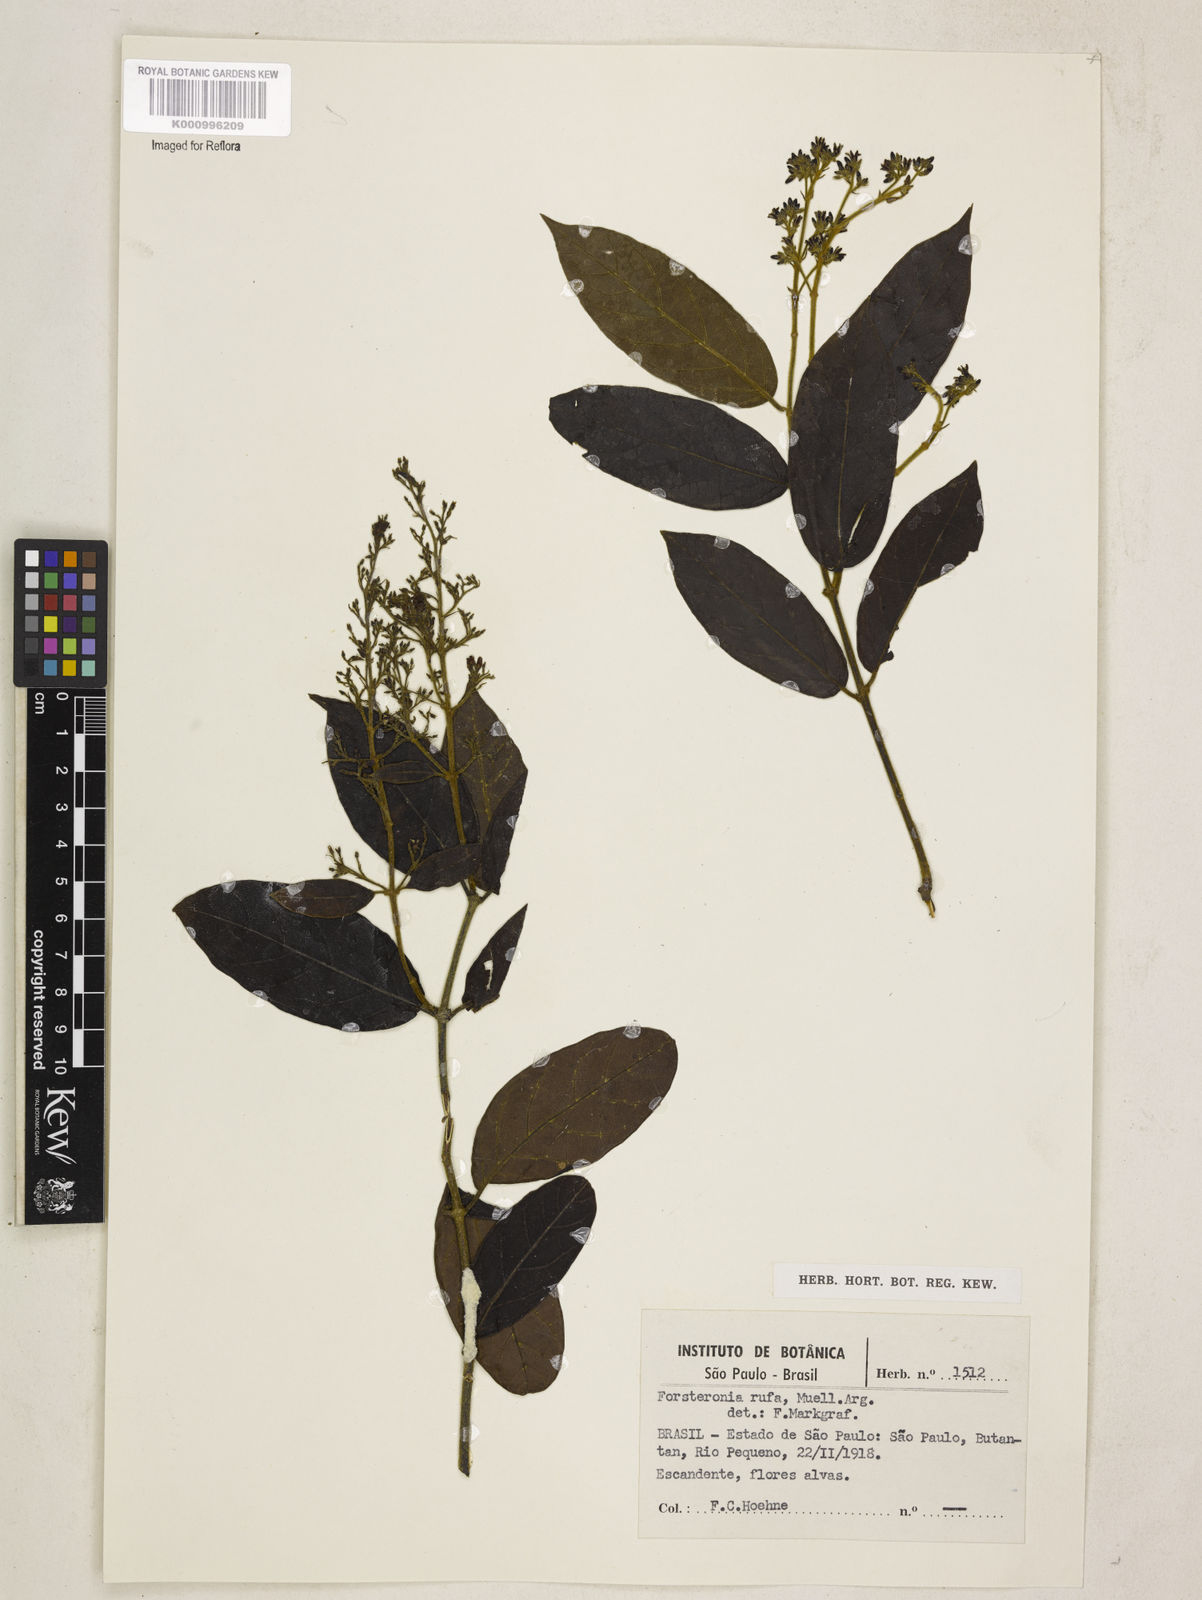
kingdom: Plantae
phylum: Tracheophyta
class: Magnoliopsida
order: Gentianales
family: Apocynaceae
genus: Forsteronia
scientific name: Forsteronia
